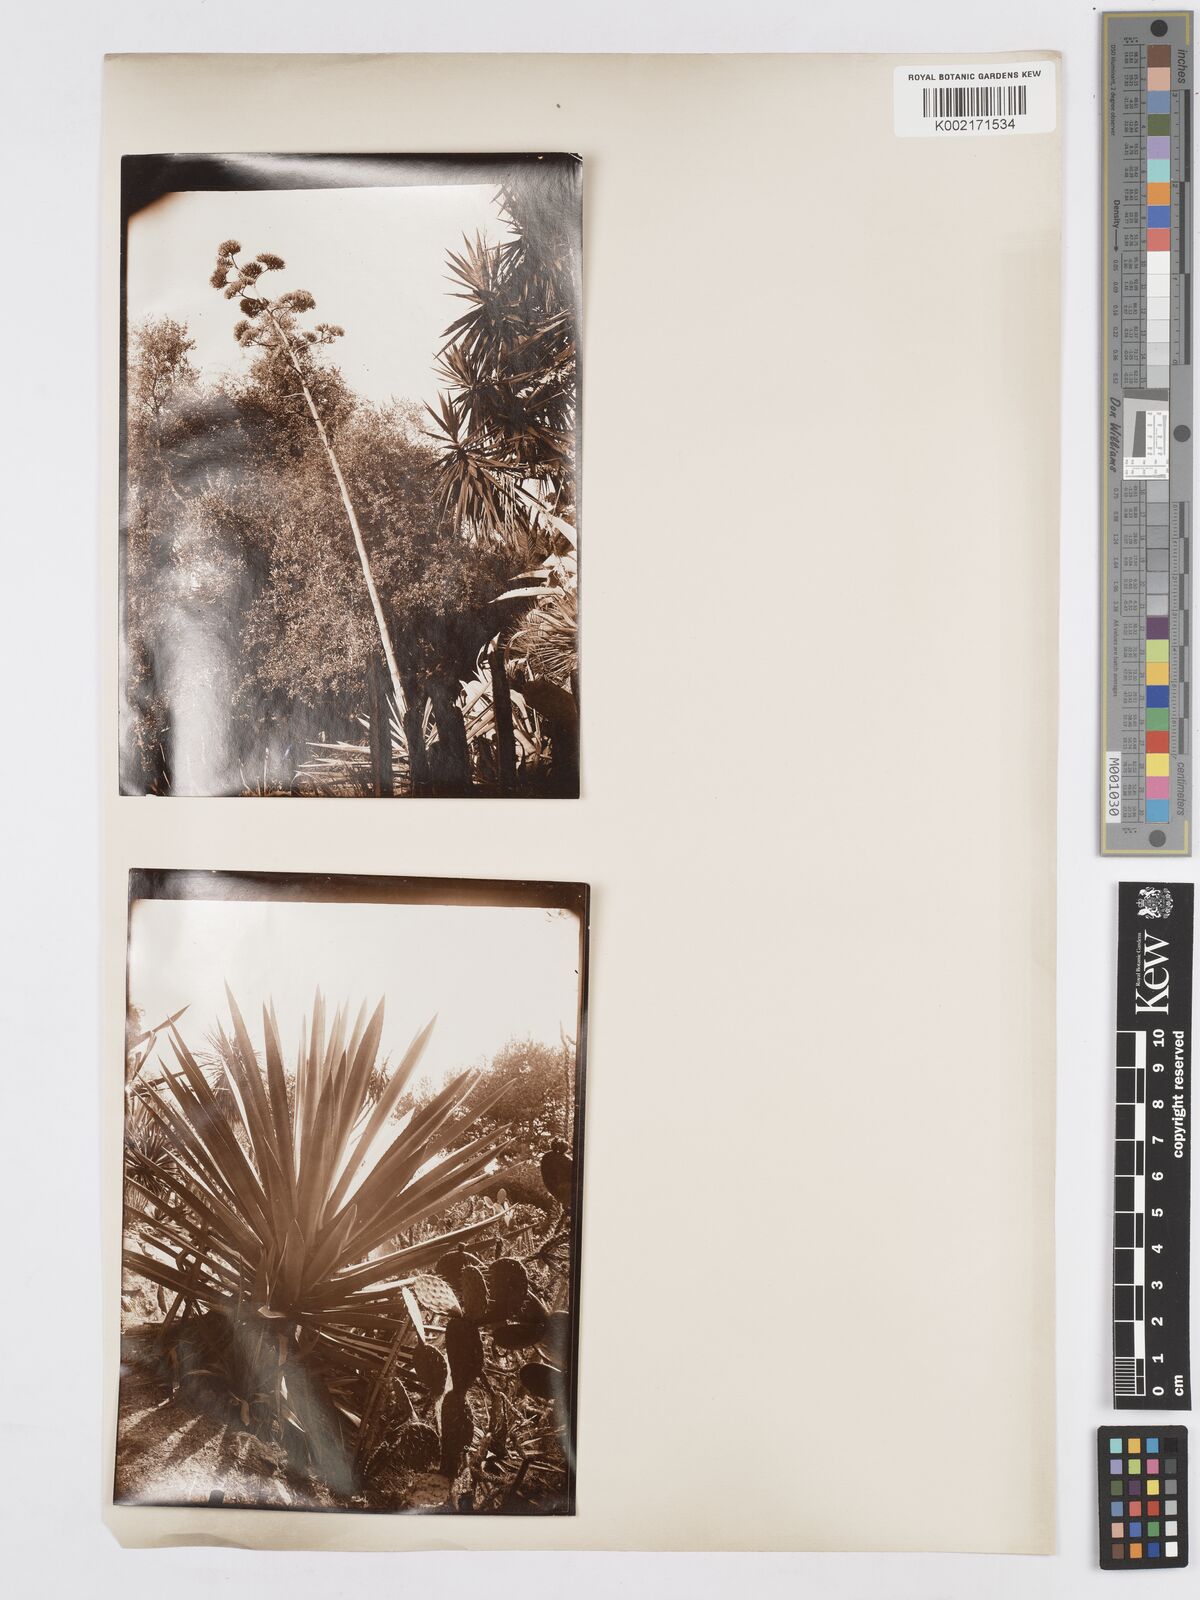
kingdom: Plantae
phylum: Tracheophyta
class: Liliopsida
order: Asparagales
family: Asparagaceae
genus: Agave
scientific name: Agave fourcroydes
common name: Henequen
